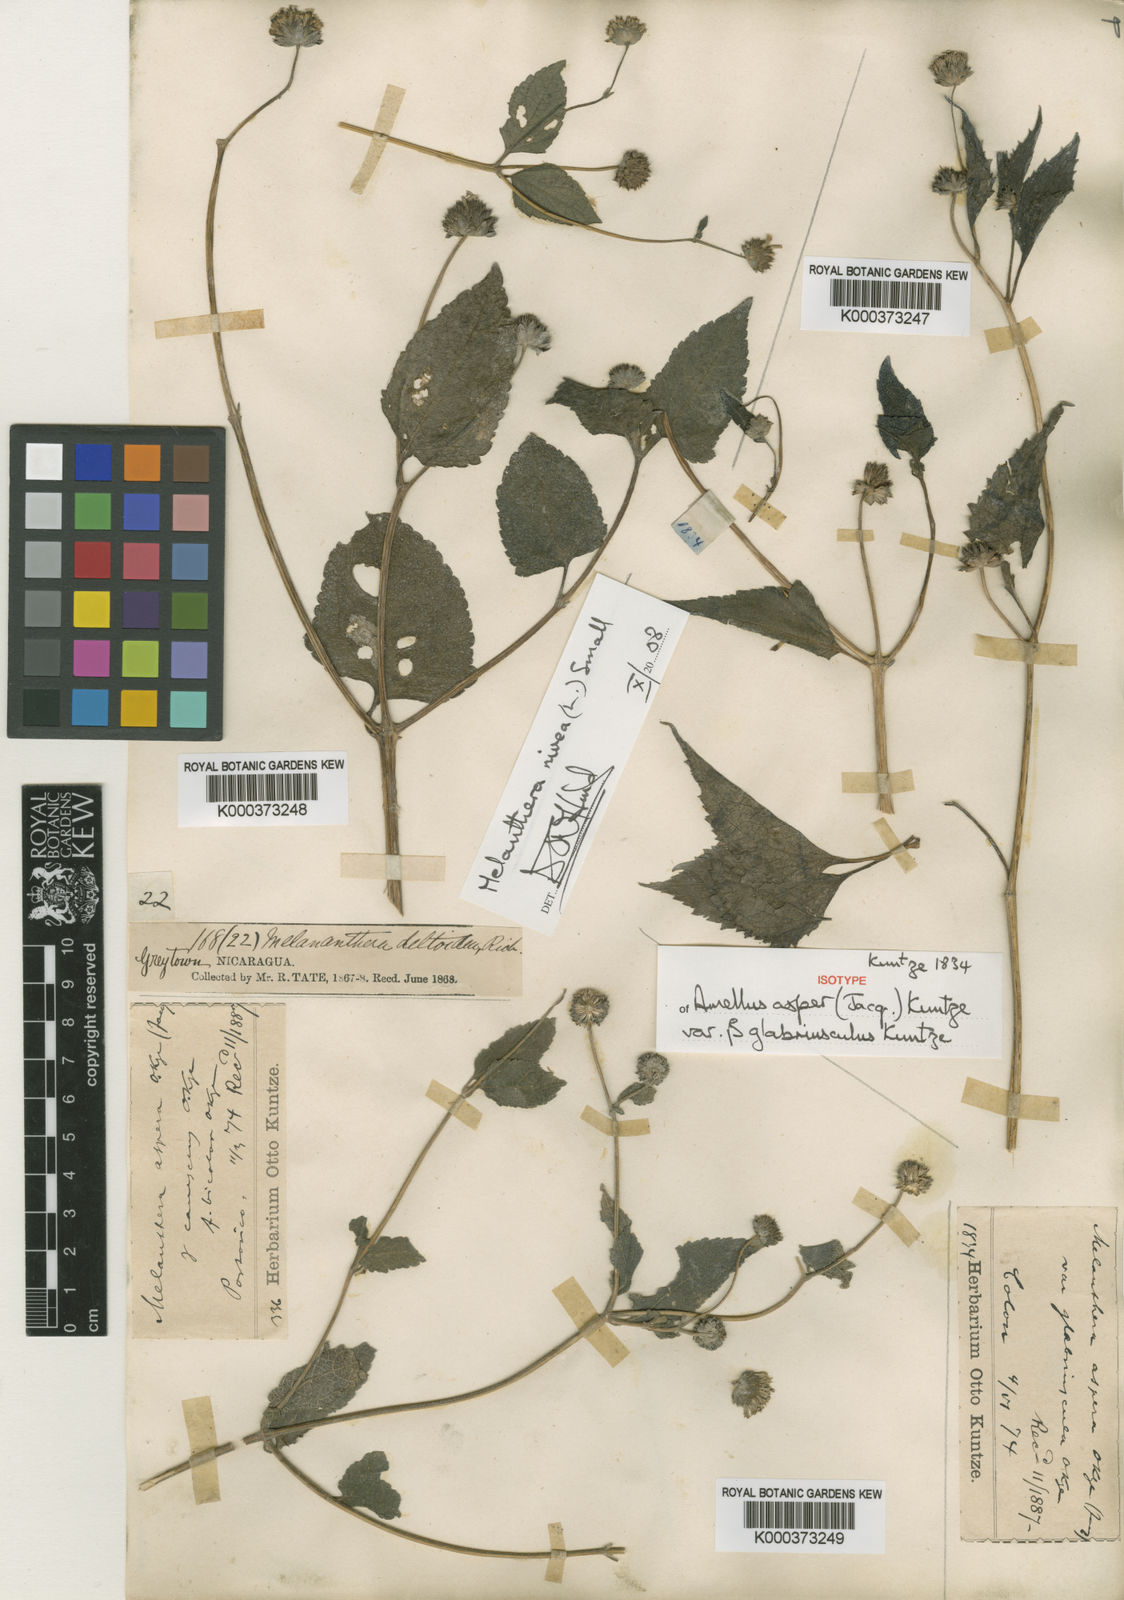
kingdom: Plantae
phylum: Tracheophyta
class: Magnoliopsida
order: Asterales
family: Asteraceae
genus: Melanthera
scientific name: Melanthera nivea
